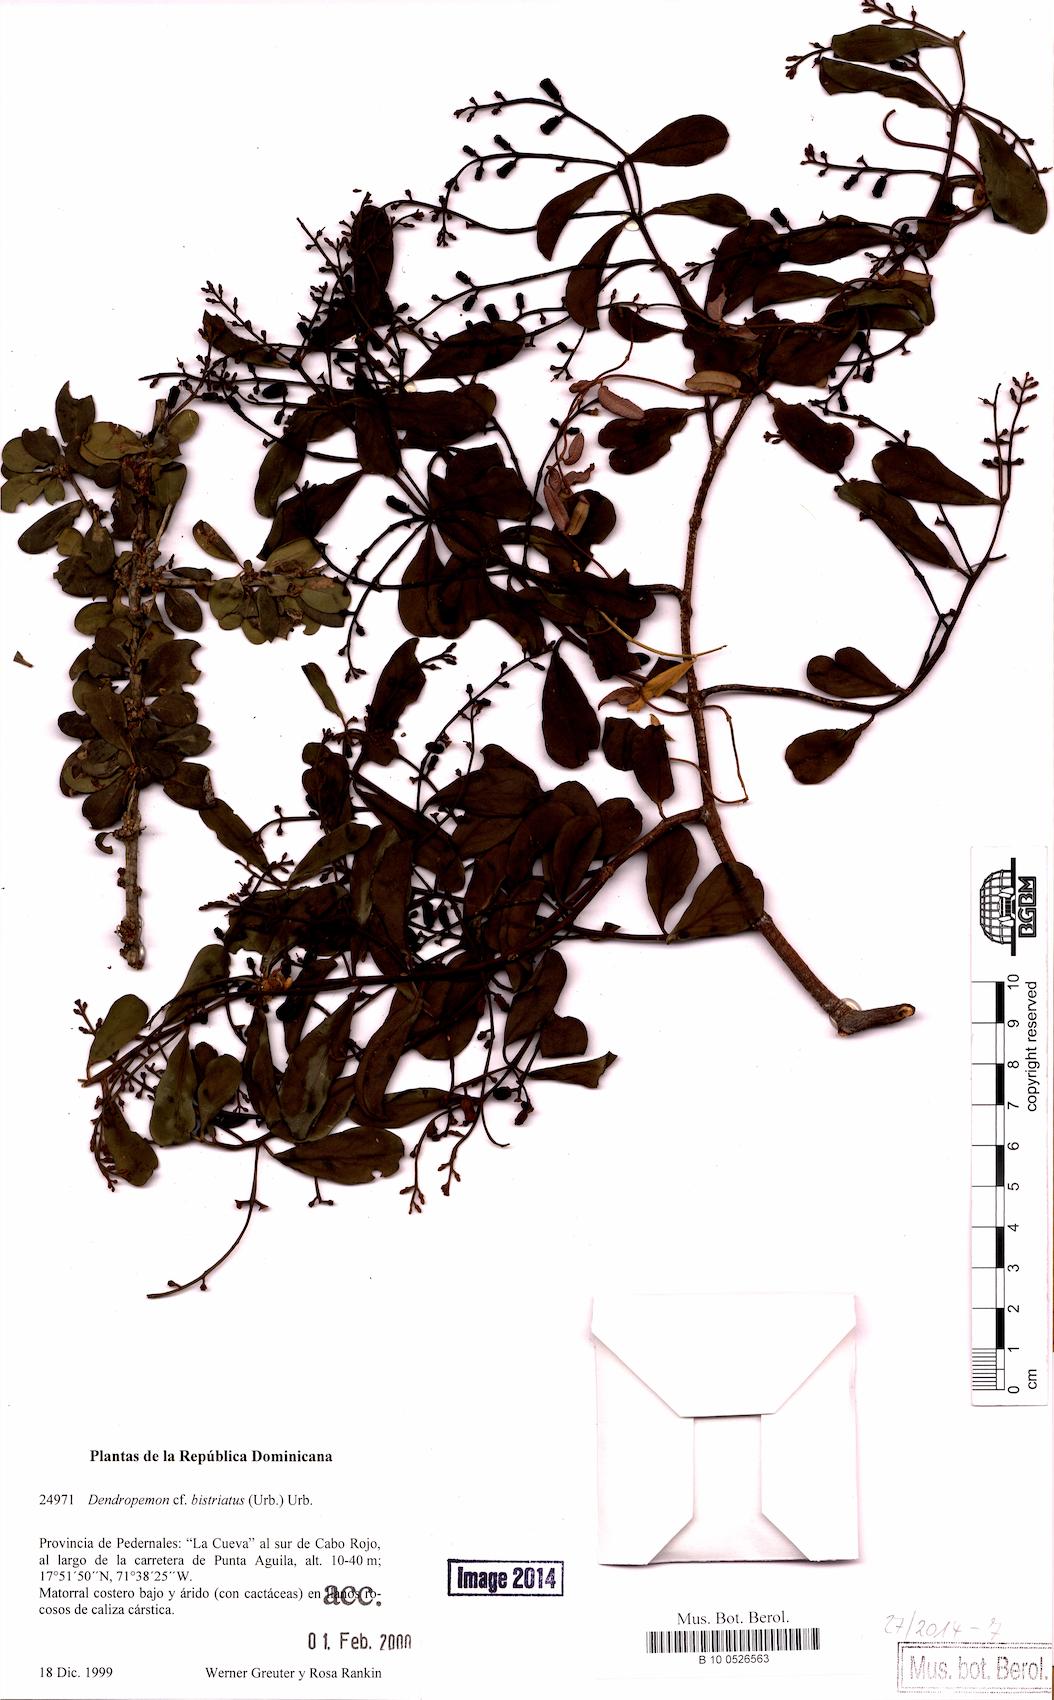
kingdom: Plantae
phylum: Tracheophyta
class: Magnoliopsida
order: Santalales
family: Loranthaceae
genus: Dendropemon
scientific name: Dendropemon bistriatus
